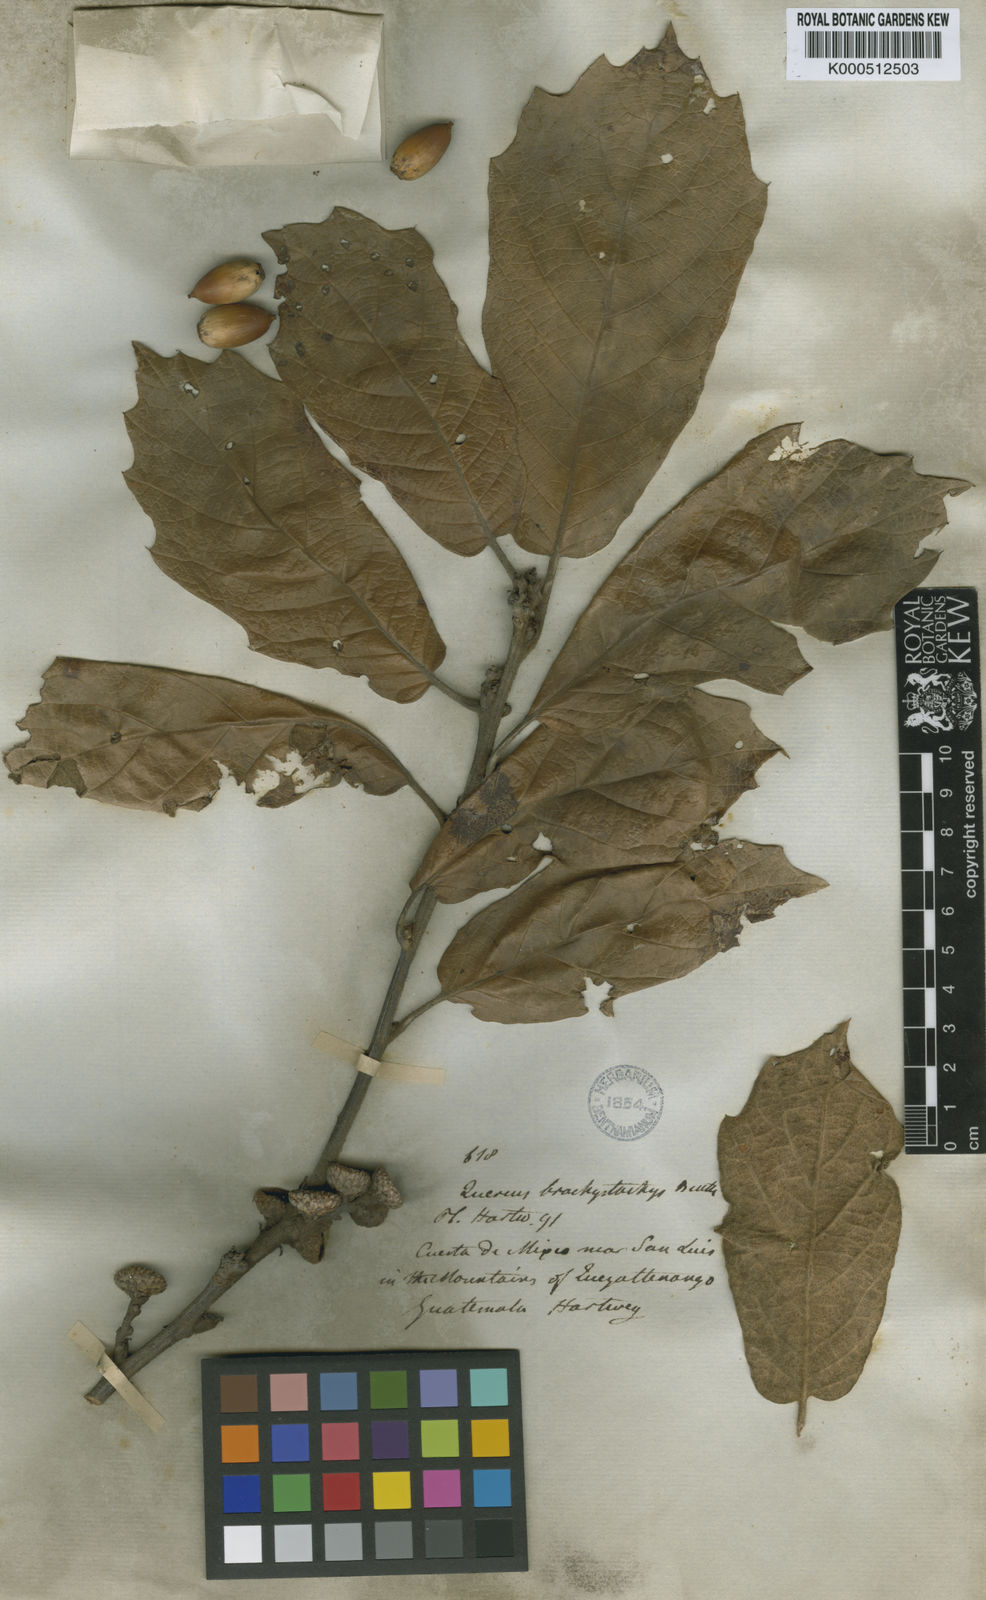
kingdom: Plantae
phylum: Tracheophyta
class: Magnoliopsida
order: Fagales
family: Fagaceae
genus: Quercus
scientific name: Quercus crassifolia
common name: Leather leaf mexican oak
